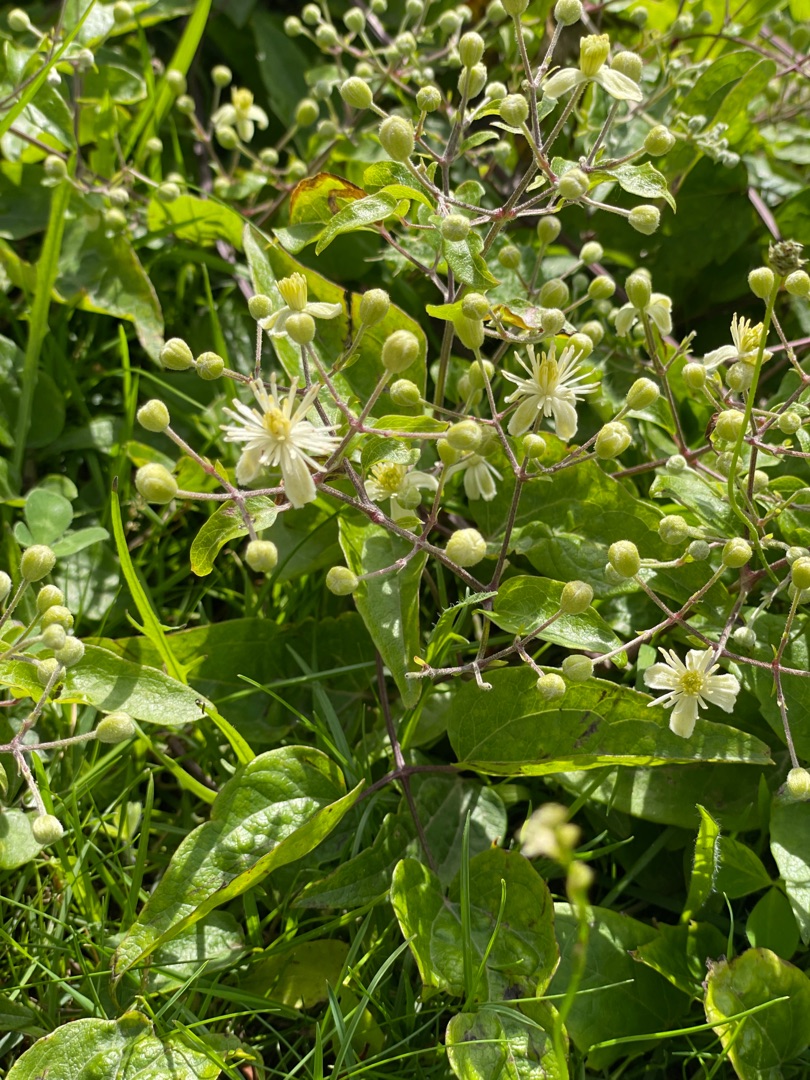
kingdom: Plantae
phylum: Tracheophyta
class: Magnoliopsida
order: Ranunculales
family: Ranunculaceae
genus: Clematis
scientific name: Clematis vitalba
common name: Skovranke
